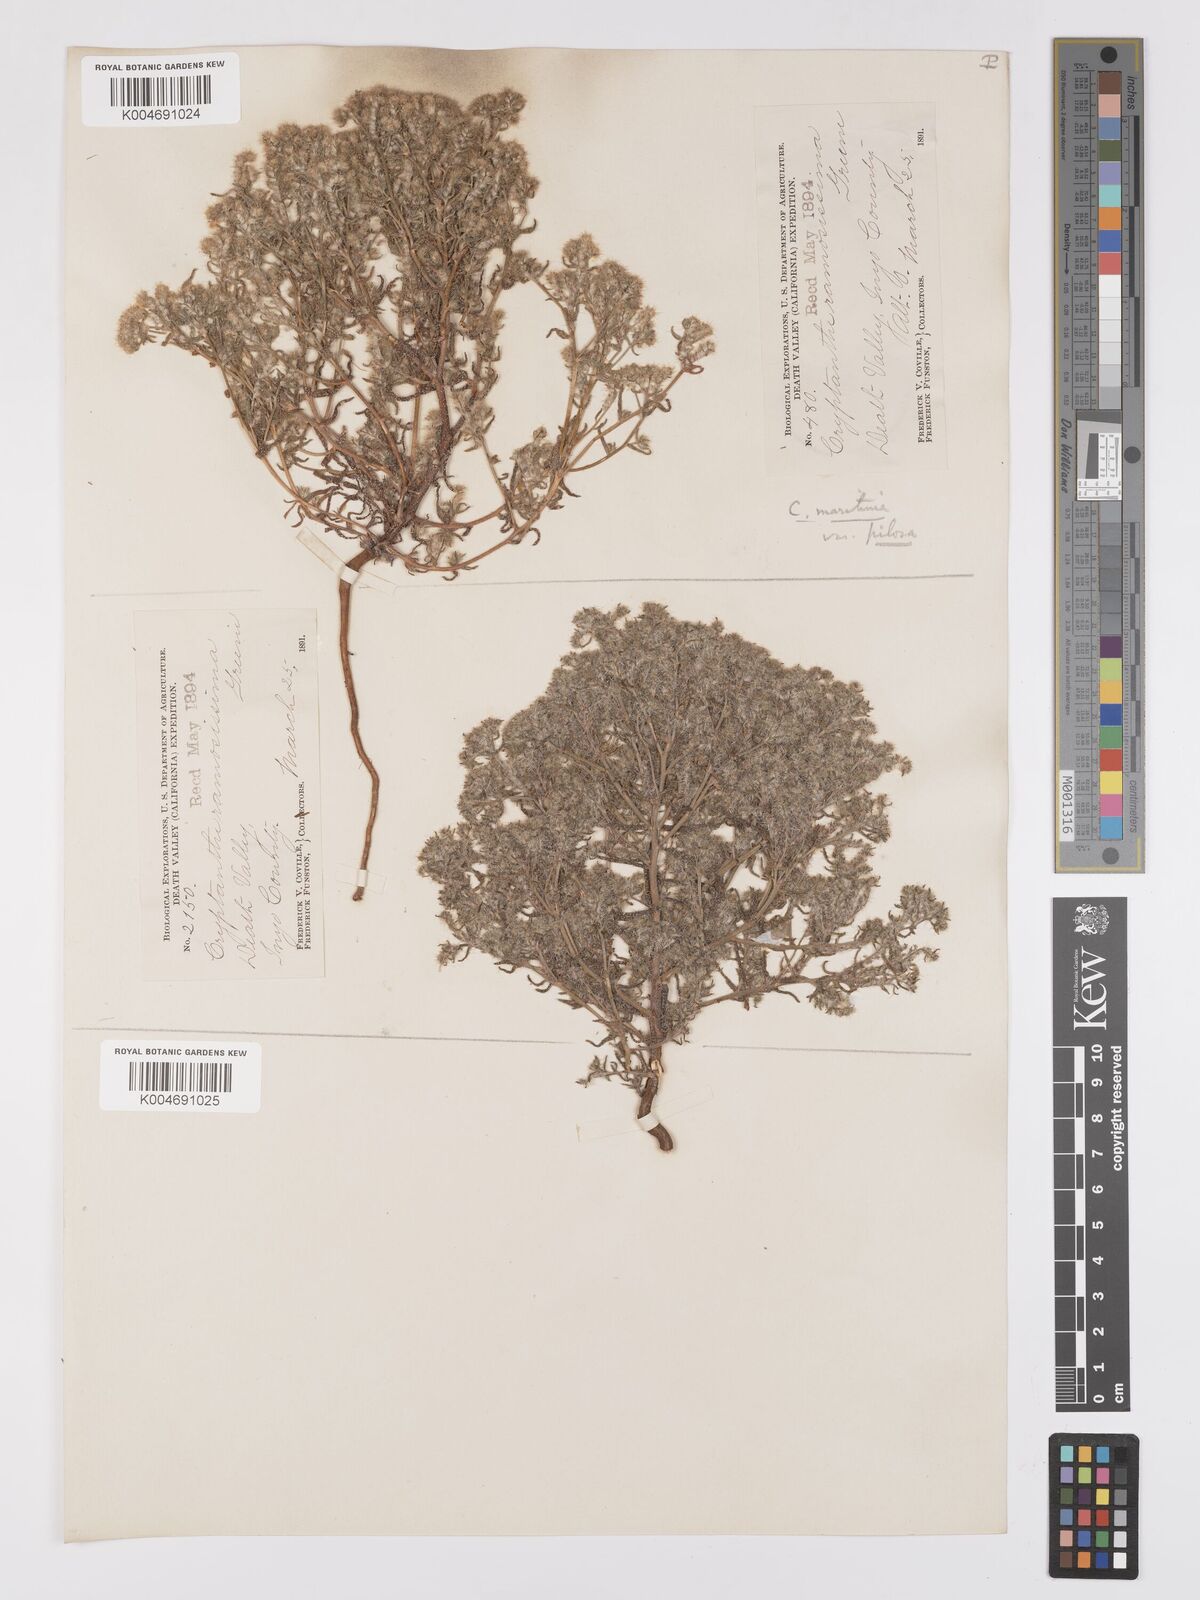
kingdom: Plantae
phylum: Tracheophyta
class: Magnoliopsida
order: Boraginales
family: Boraginaceae
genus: Cryptantha
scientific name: Cryptantha maritima
